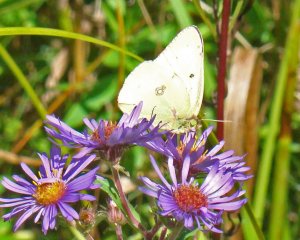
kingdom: Animalia
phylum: Arthropoda
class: Insecta
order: Lepidoptera
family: Pieridae
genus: Colias
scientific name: Colias philodice
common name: Clouded Sulphur
